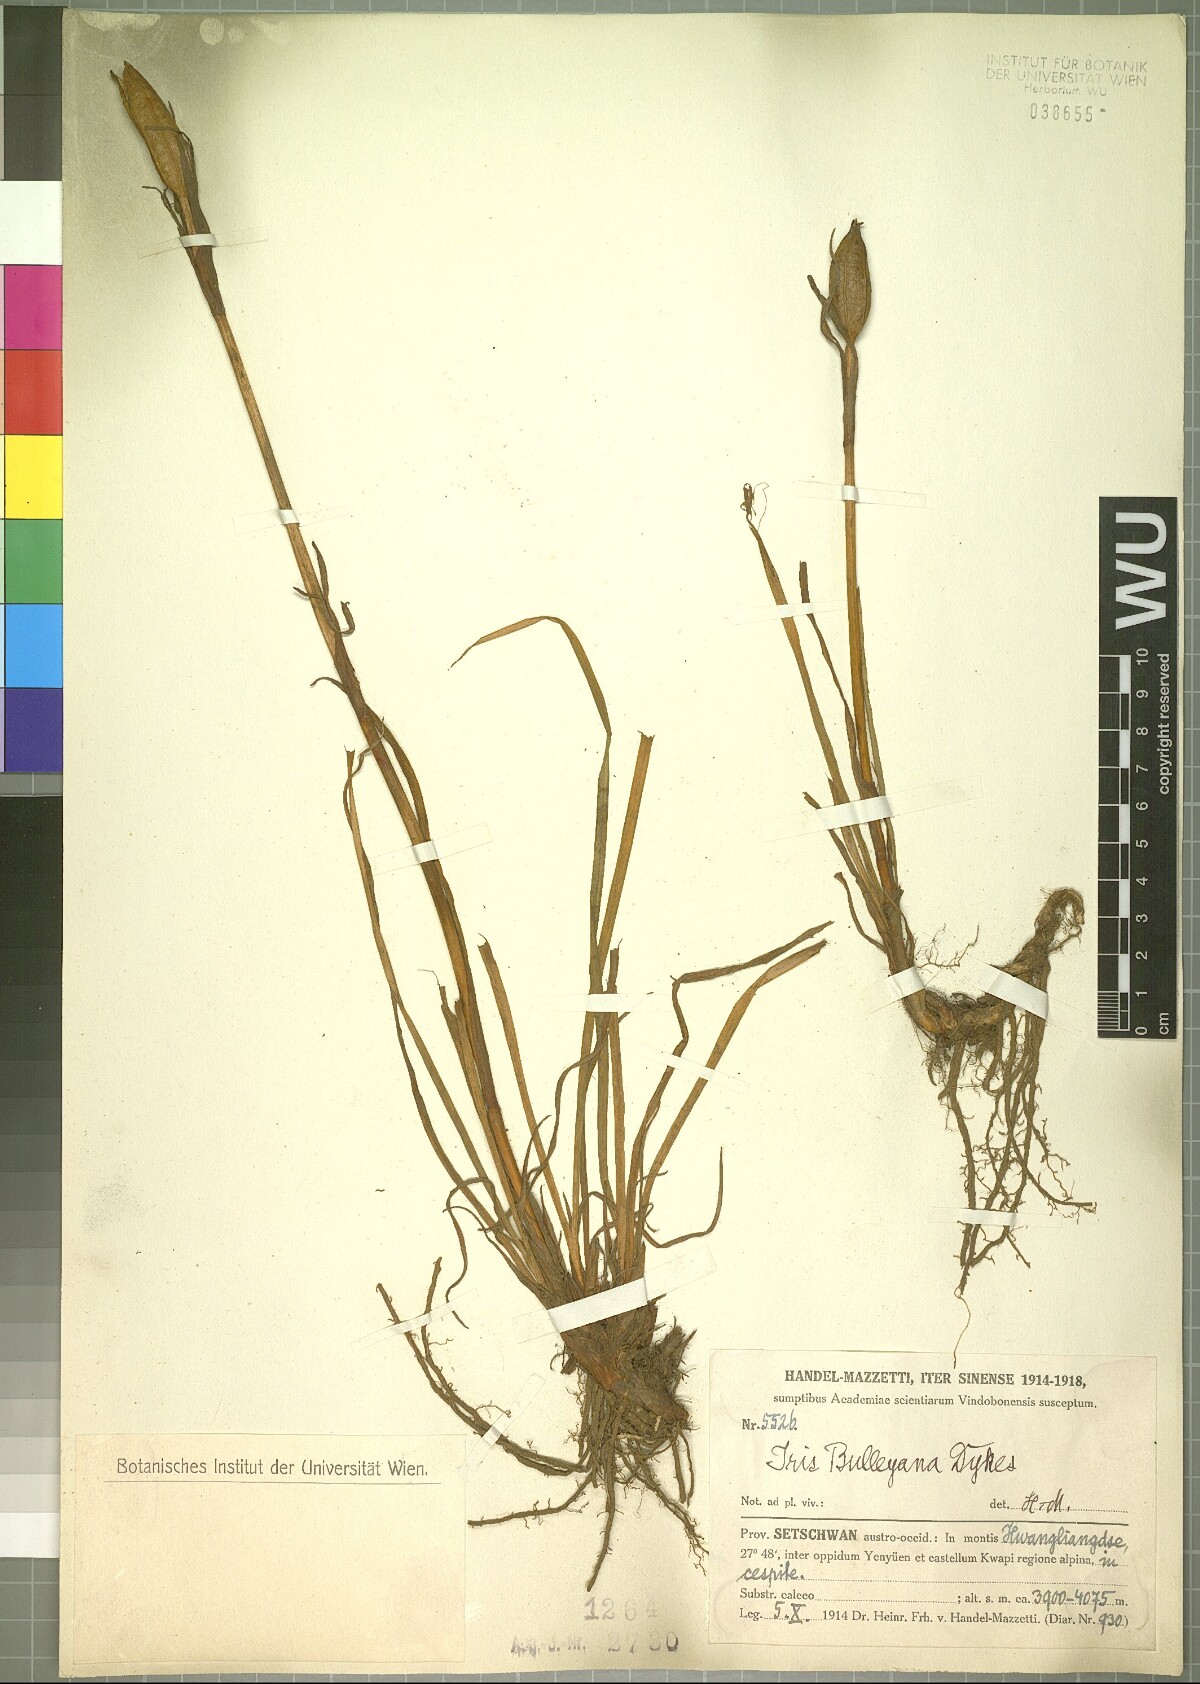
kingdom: Plantae
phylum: Tracheophyta
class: Liliopsida
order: Asparagales
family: Iridaceae
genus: Iris
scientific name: Iris bulleyana
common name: Southwest iris
